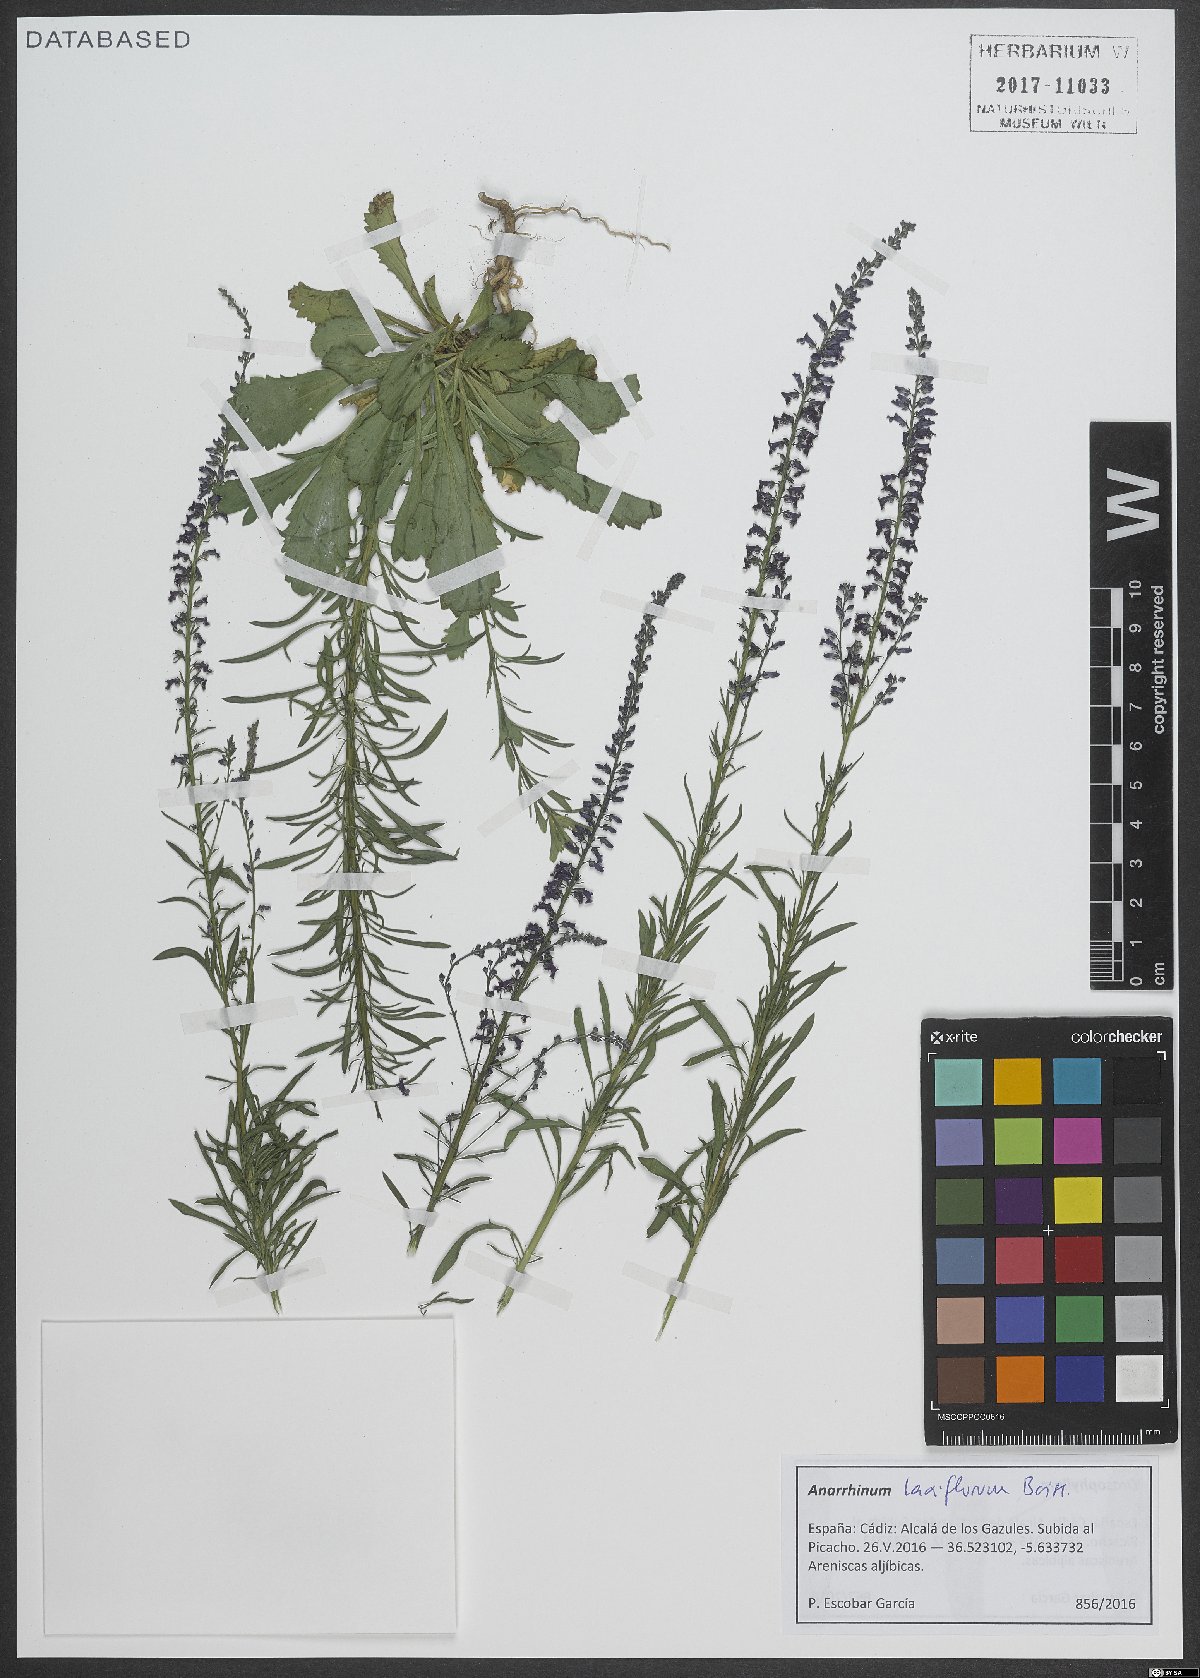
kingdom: Plantae
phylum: Tracheophyta
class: Magnoliopsida
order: Lamiales
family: Plantaginaceae
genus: Anarrhinum
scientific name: Anarrhinum laxiflorum
